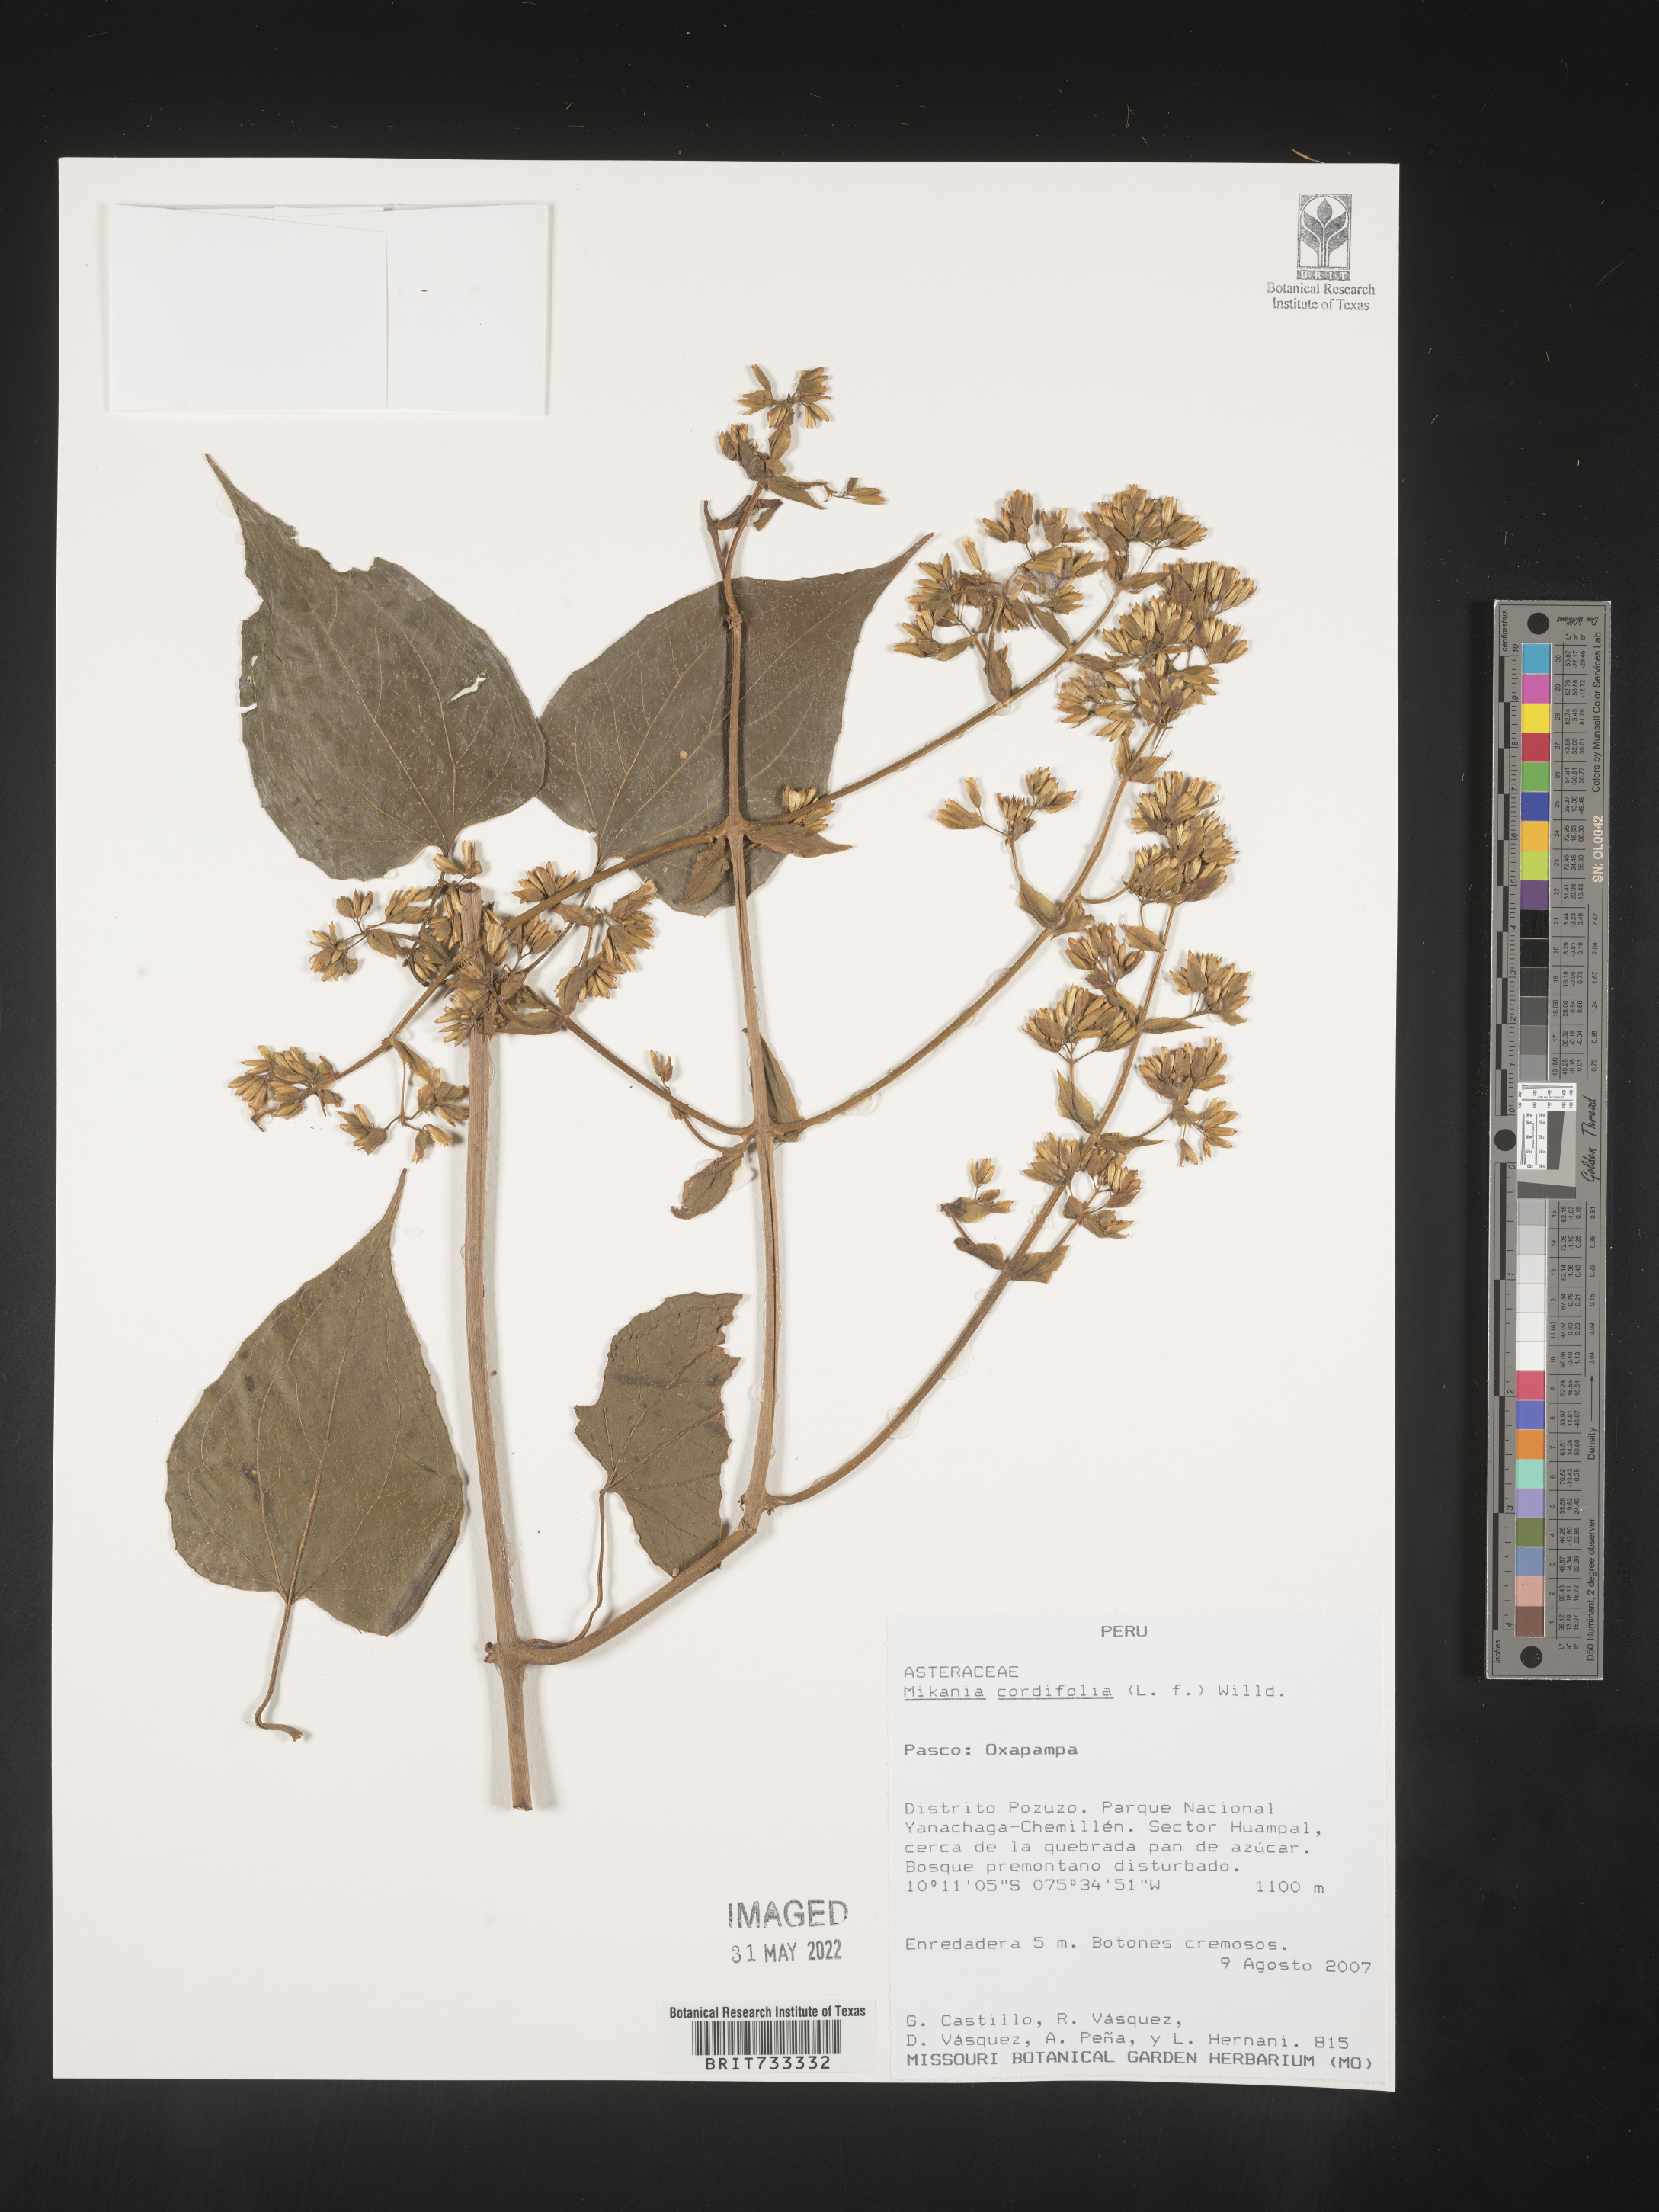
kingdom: Plantae
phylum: Tracheophyta
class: Magnoliopsida
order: Asterales
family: Asteraceae
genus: Mikania
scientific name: Mikania
